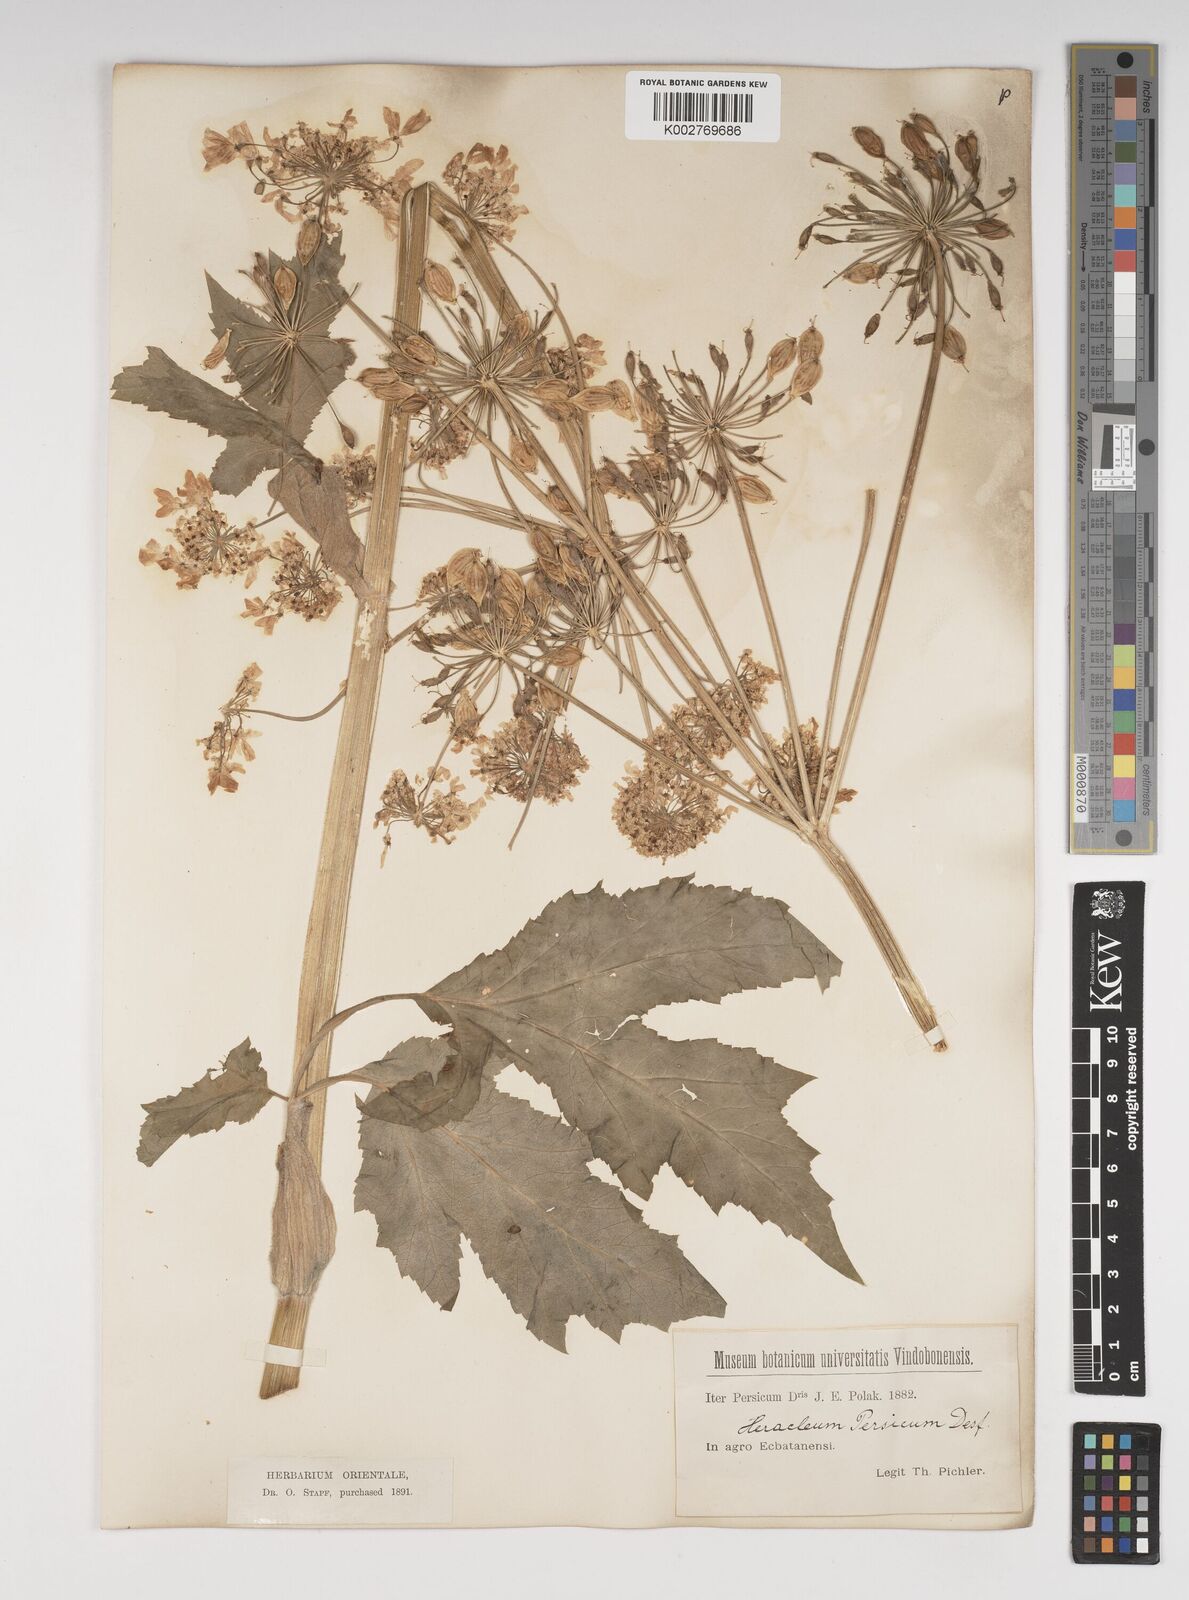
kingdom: Plantae
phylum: Tracheophyta
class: Magnoliopsida
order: Apiales
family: Apiaceae
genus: Heracleum
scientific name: Heracleum persicum
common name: Persian hogweed
